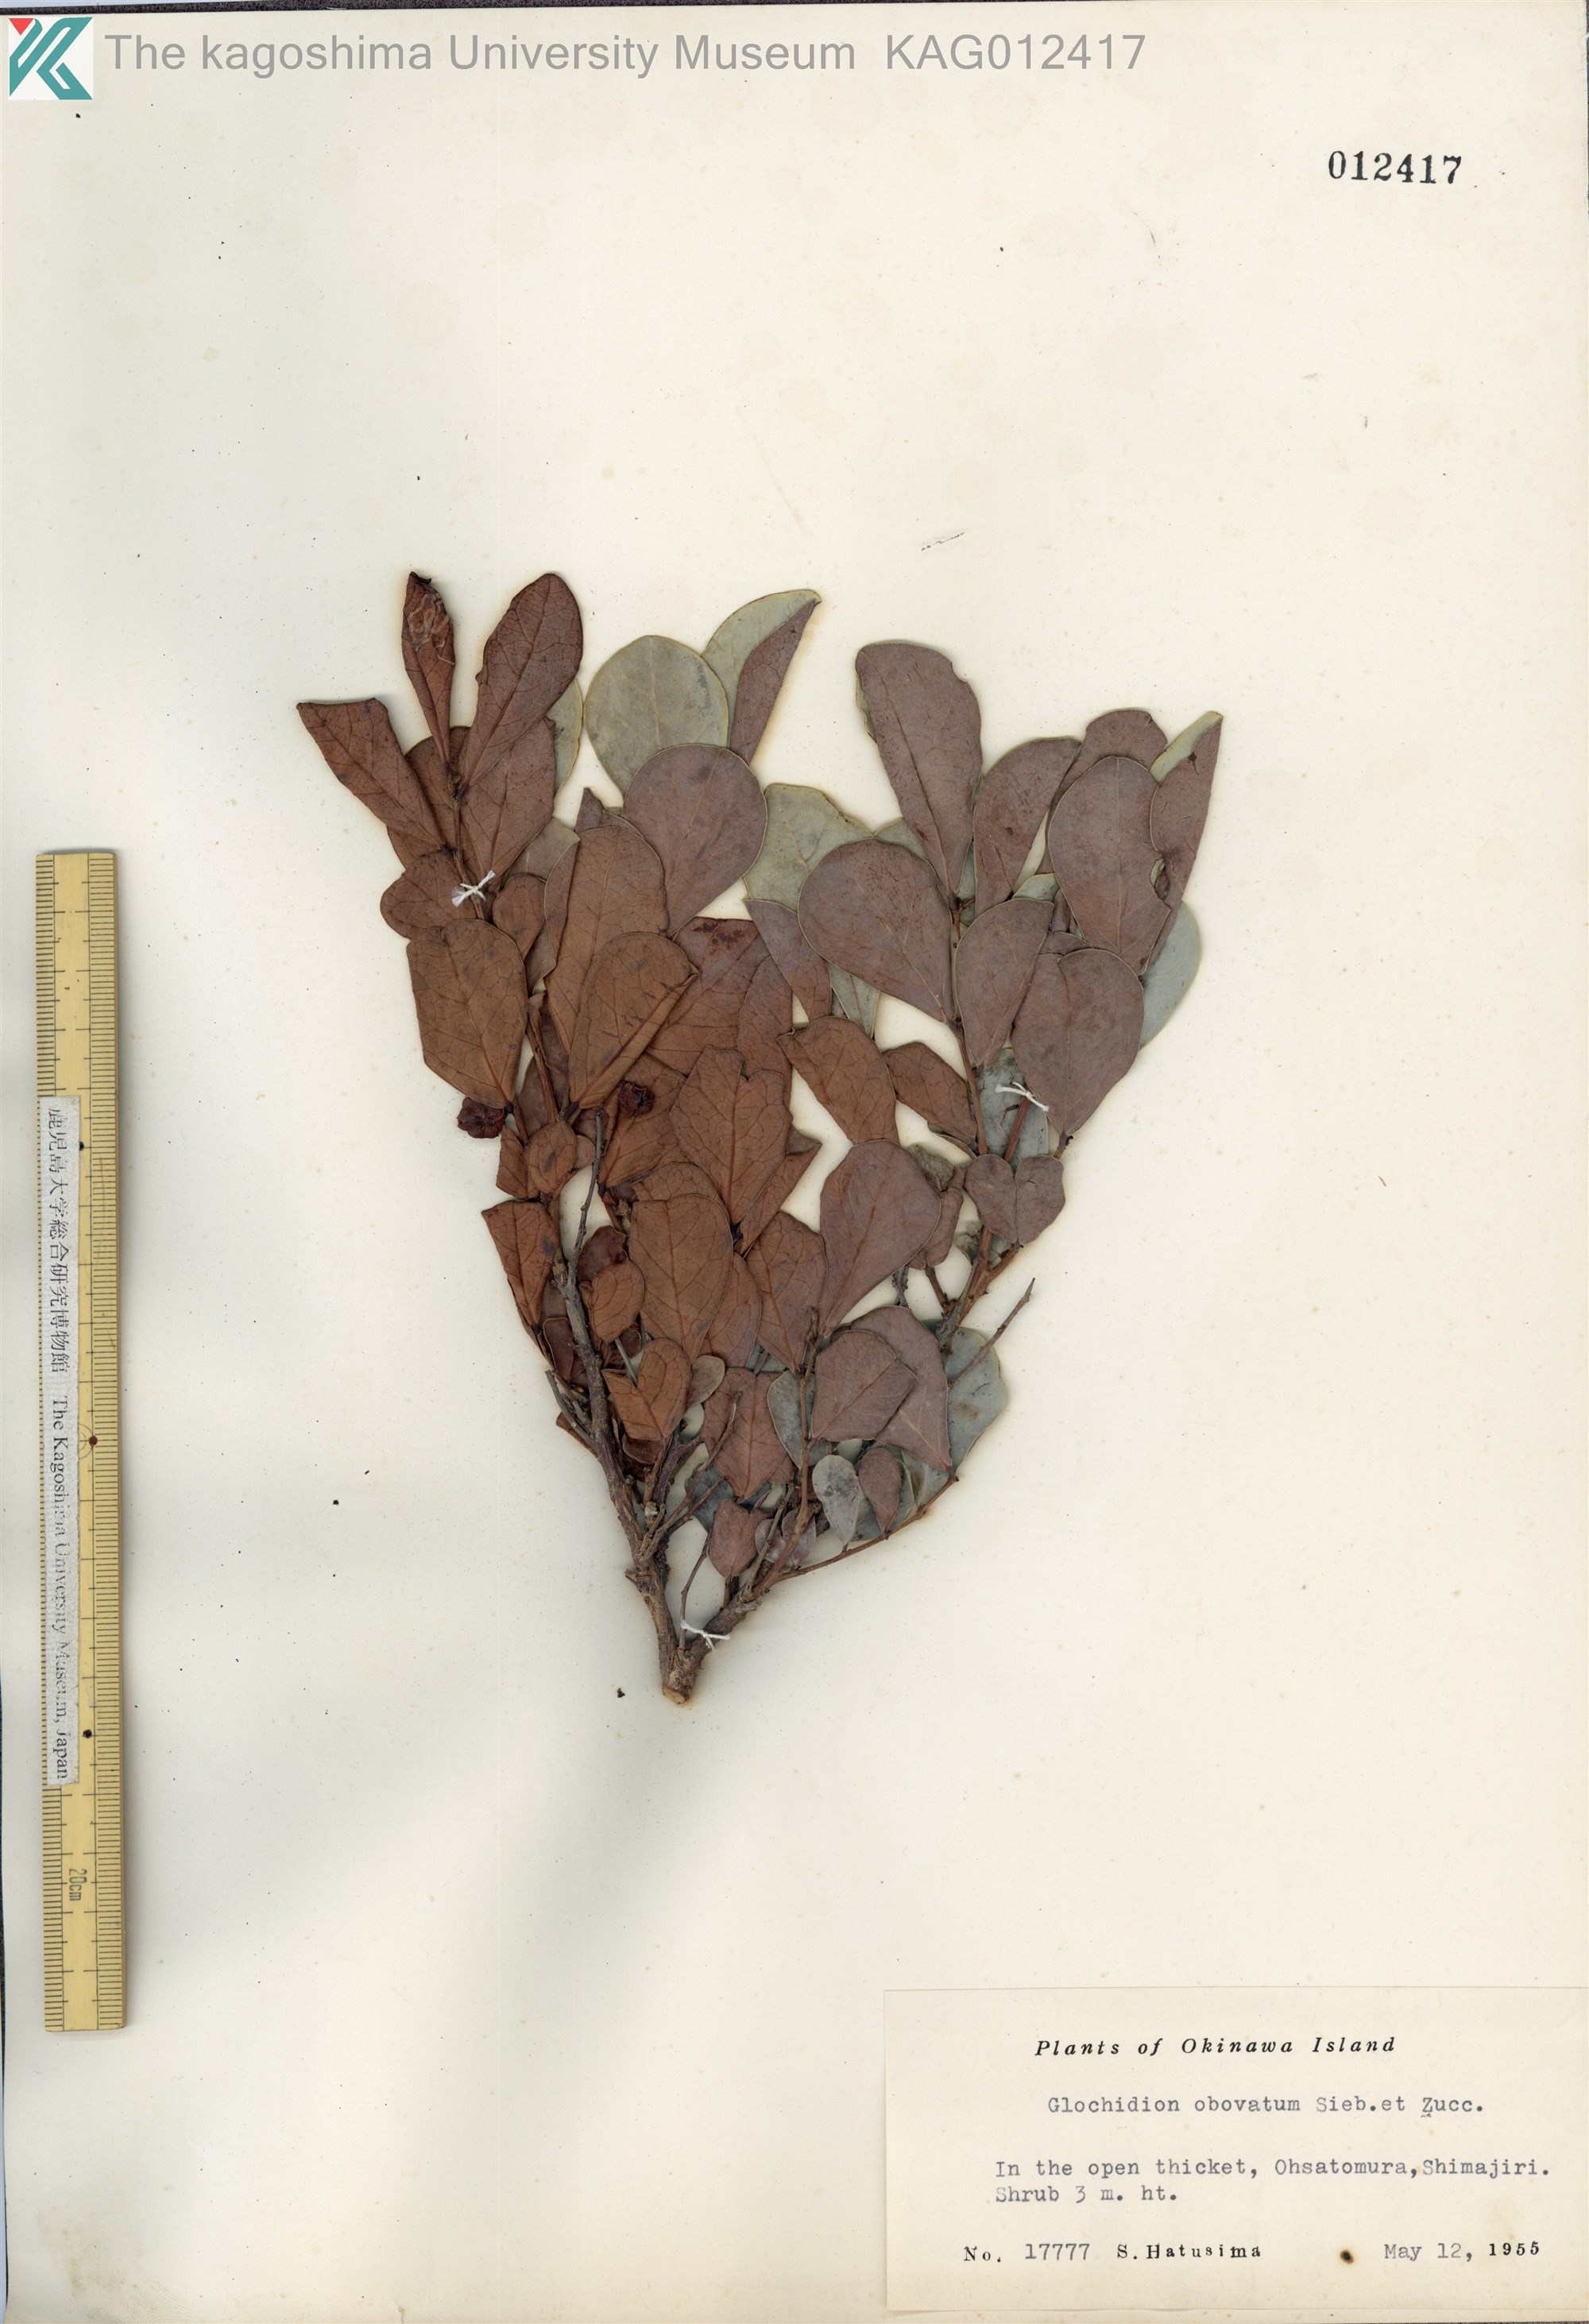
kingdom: Plantae
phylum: Tracheophyta
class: Magnoliopsida
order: Malpighiales
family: Phyllanthaceae
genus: Glochidion
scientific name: Glochidion obovatum
